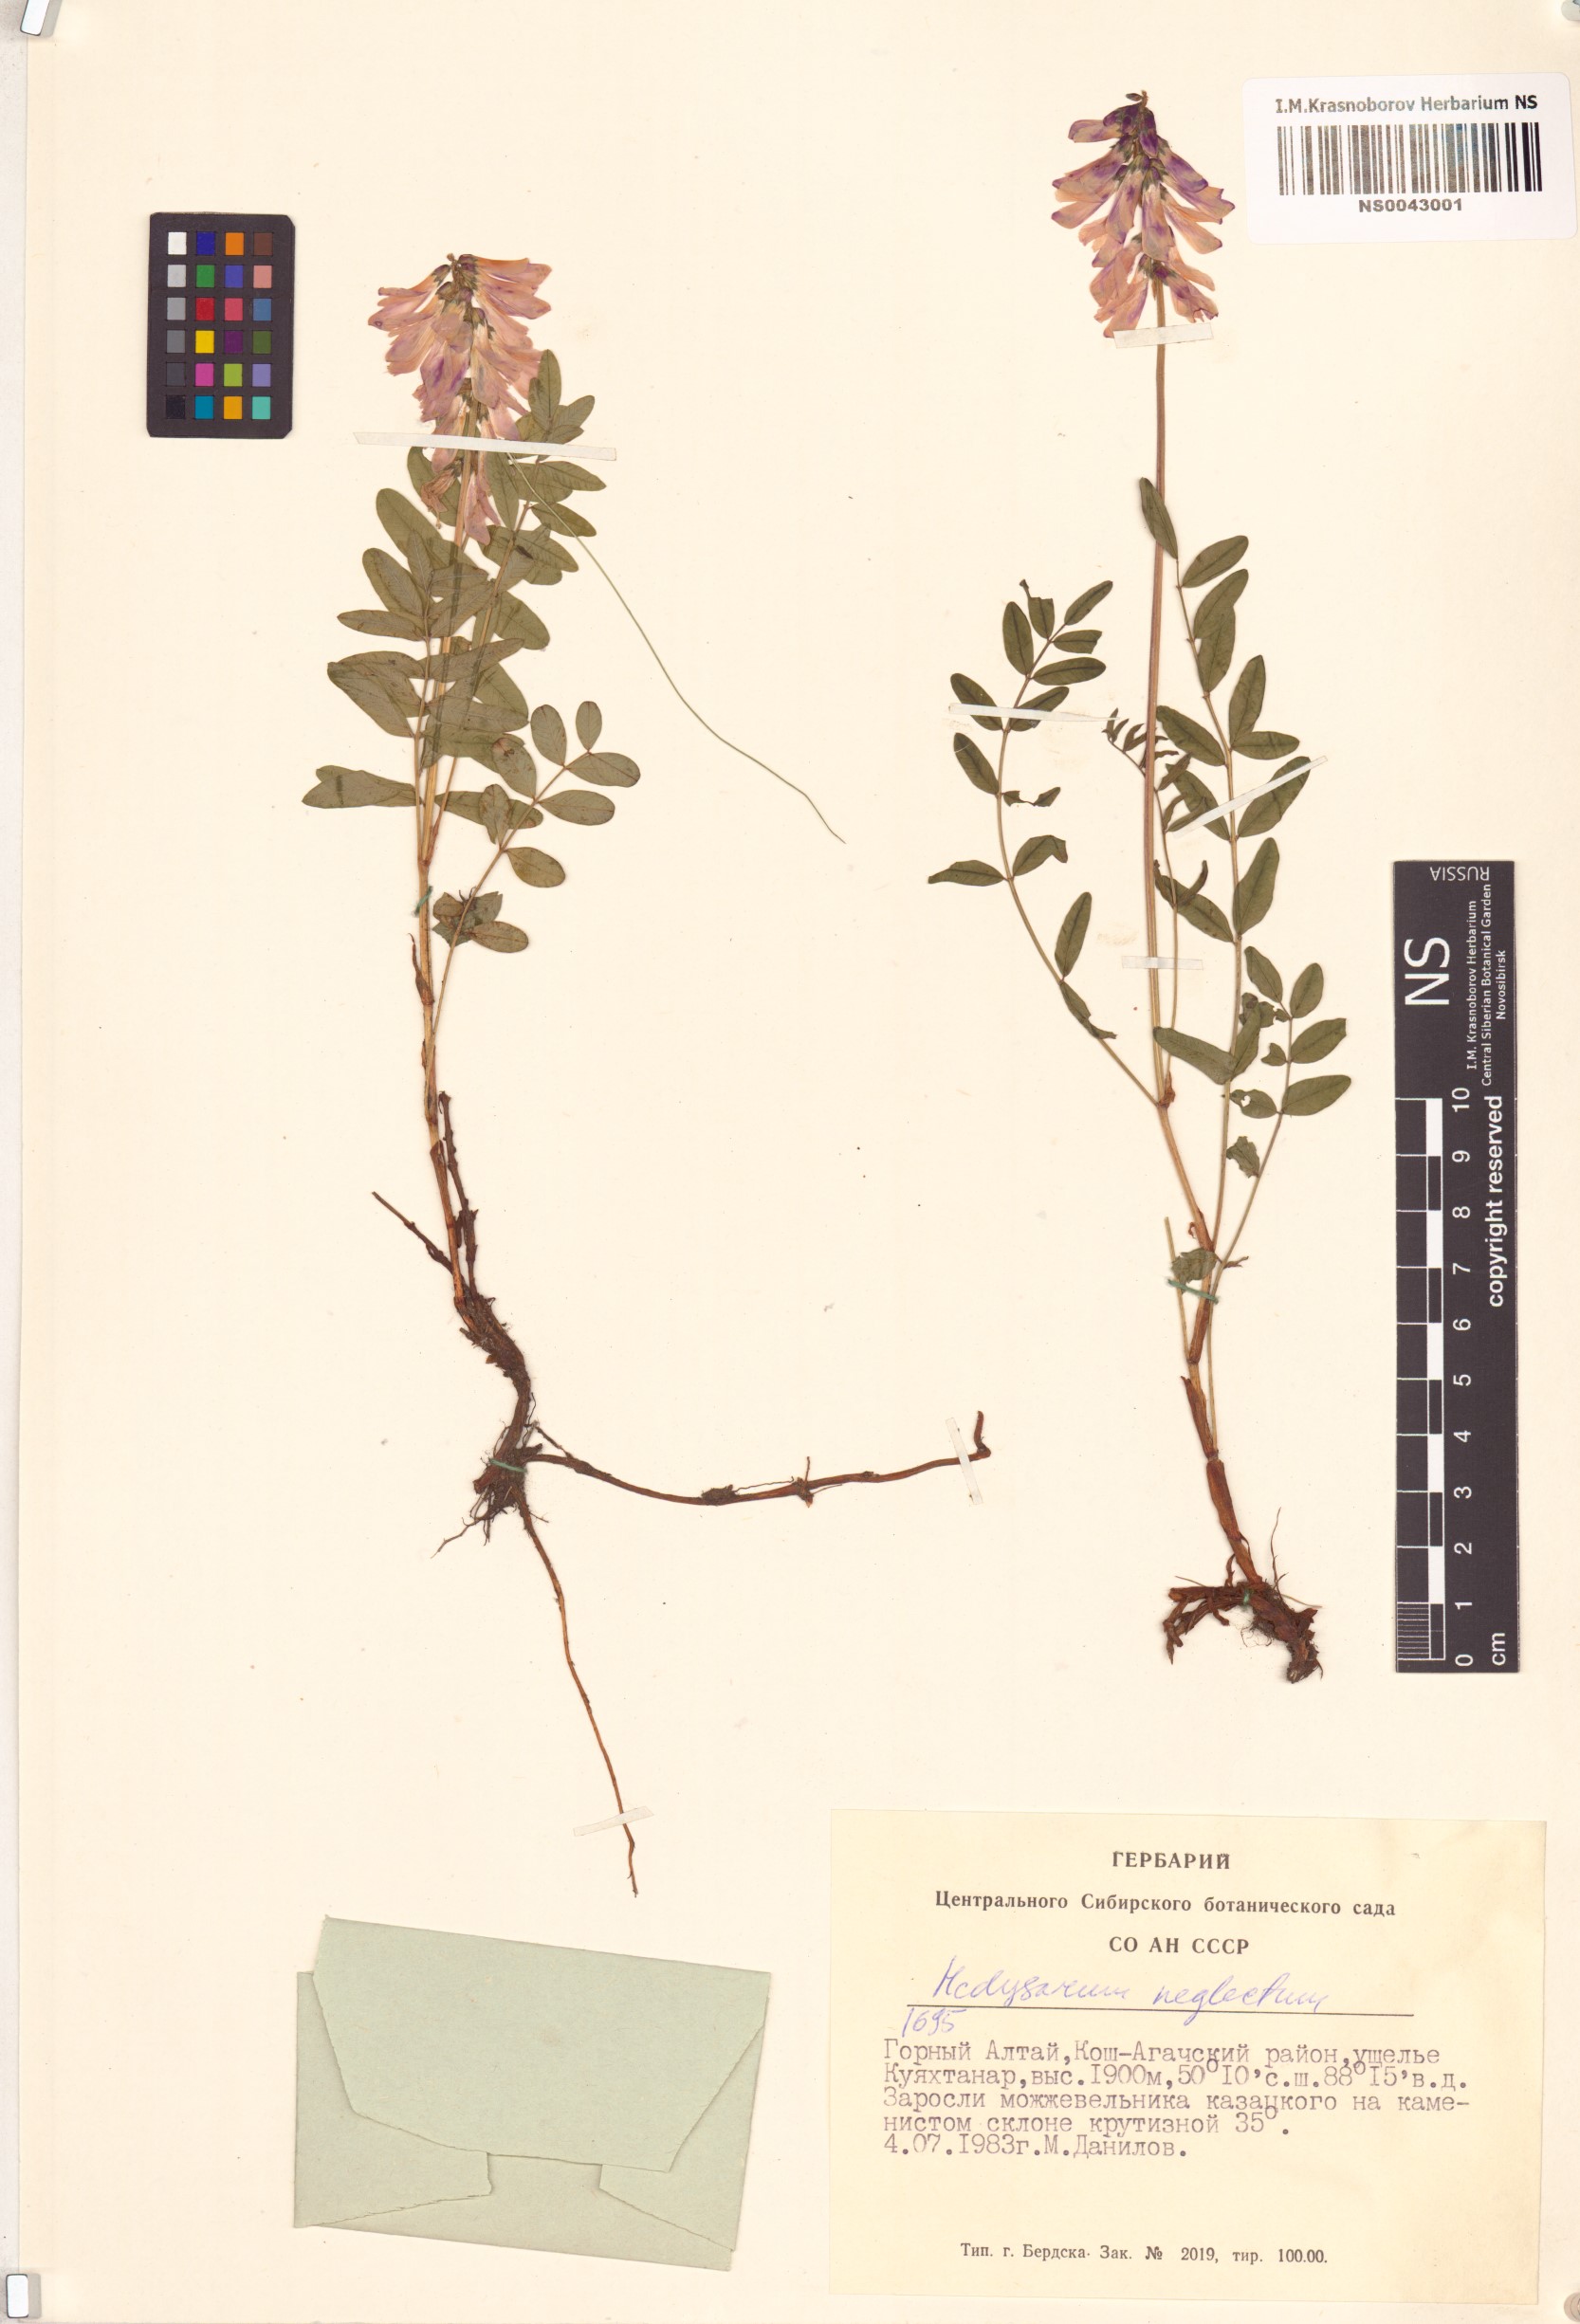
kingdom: Plantae
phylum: Tracheophyta
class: Magnoliopsida
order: Fabales
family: Fabaceae
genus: Hedysarum
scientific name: Hedysarum neglectum
